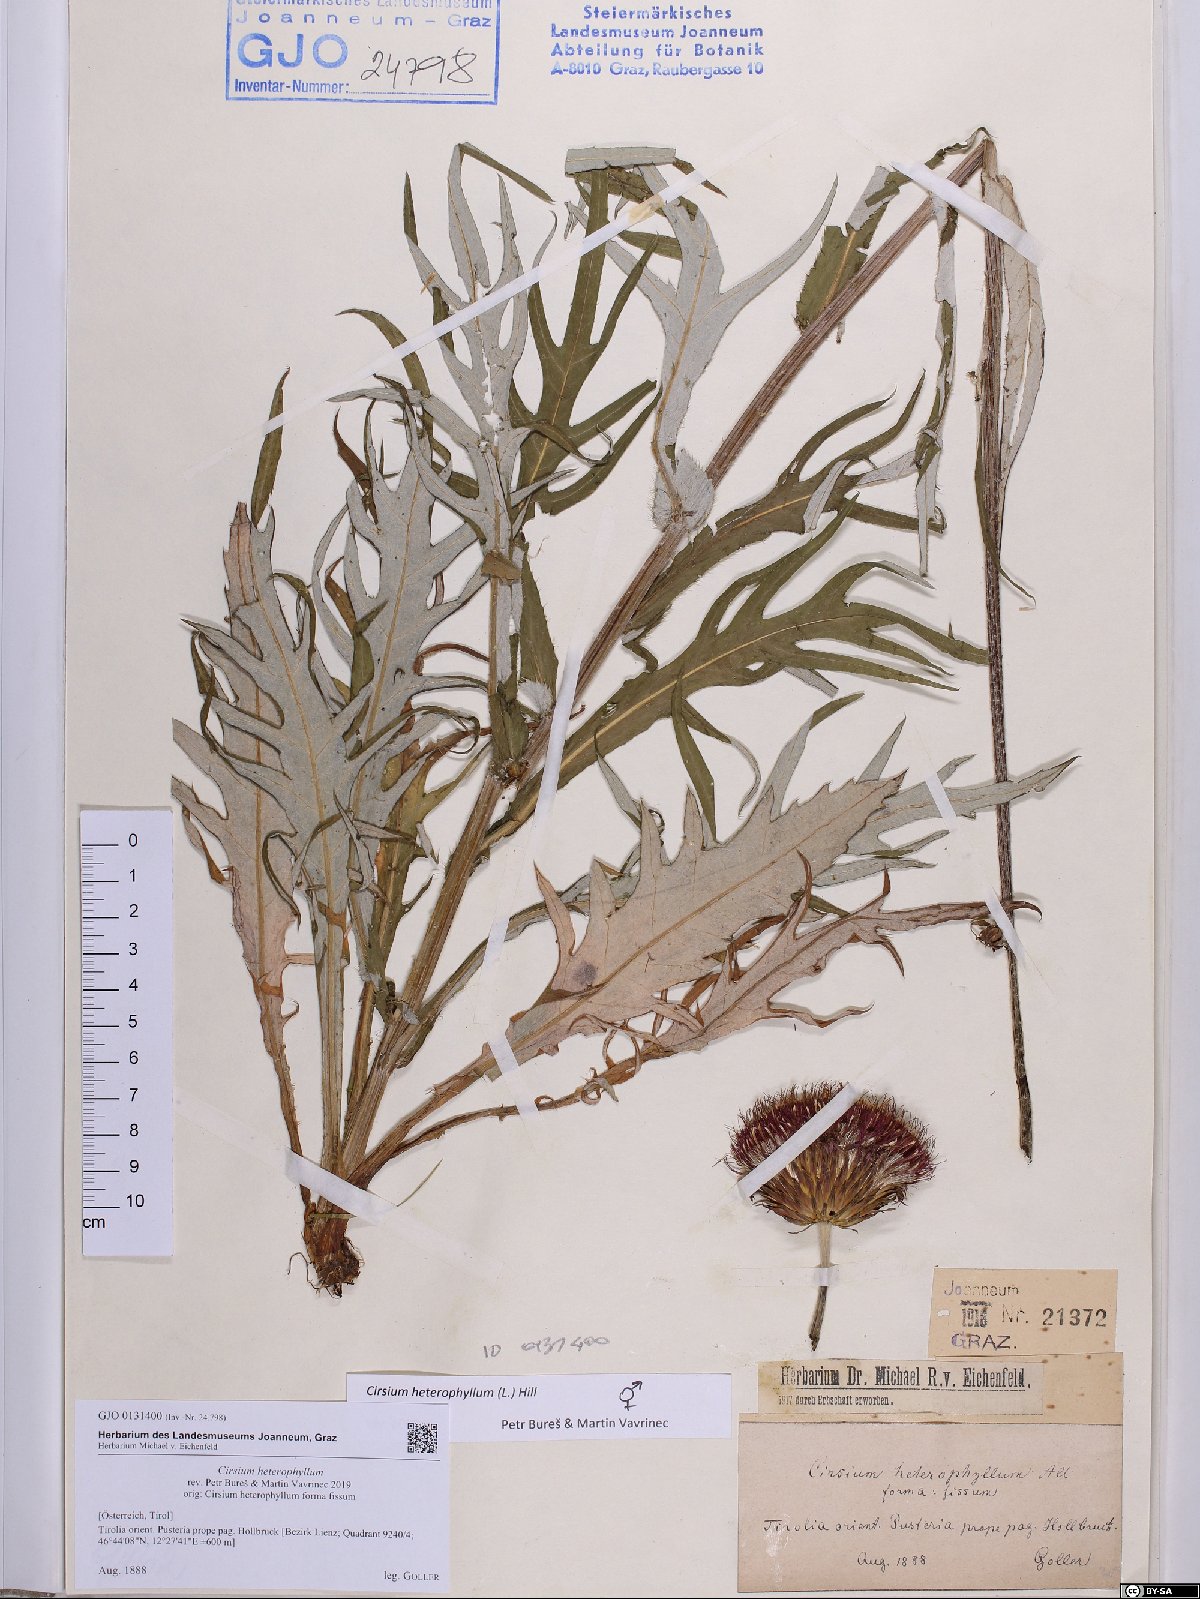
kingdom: Plantae
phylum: Tracheophyta
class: Magnoliopsida
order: Asterales
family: Asteraceae
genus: Cirsium
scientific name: Cirsium heterophyllum
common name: Melancholy thistle
